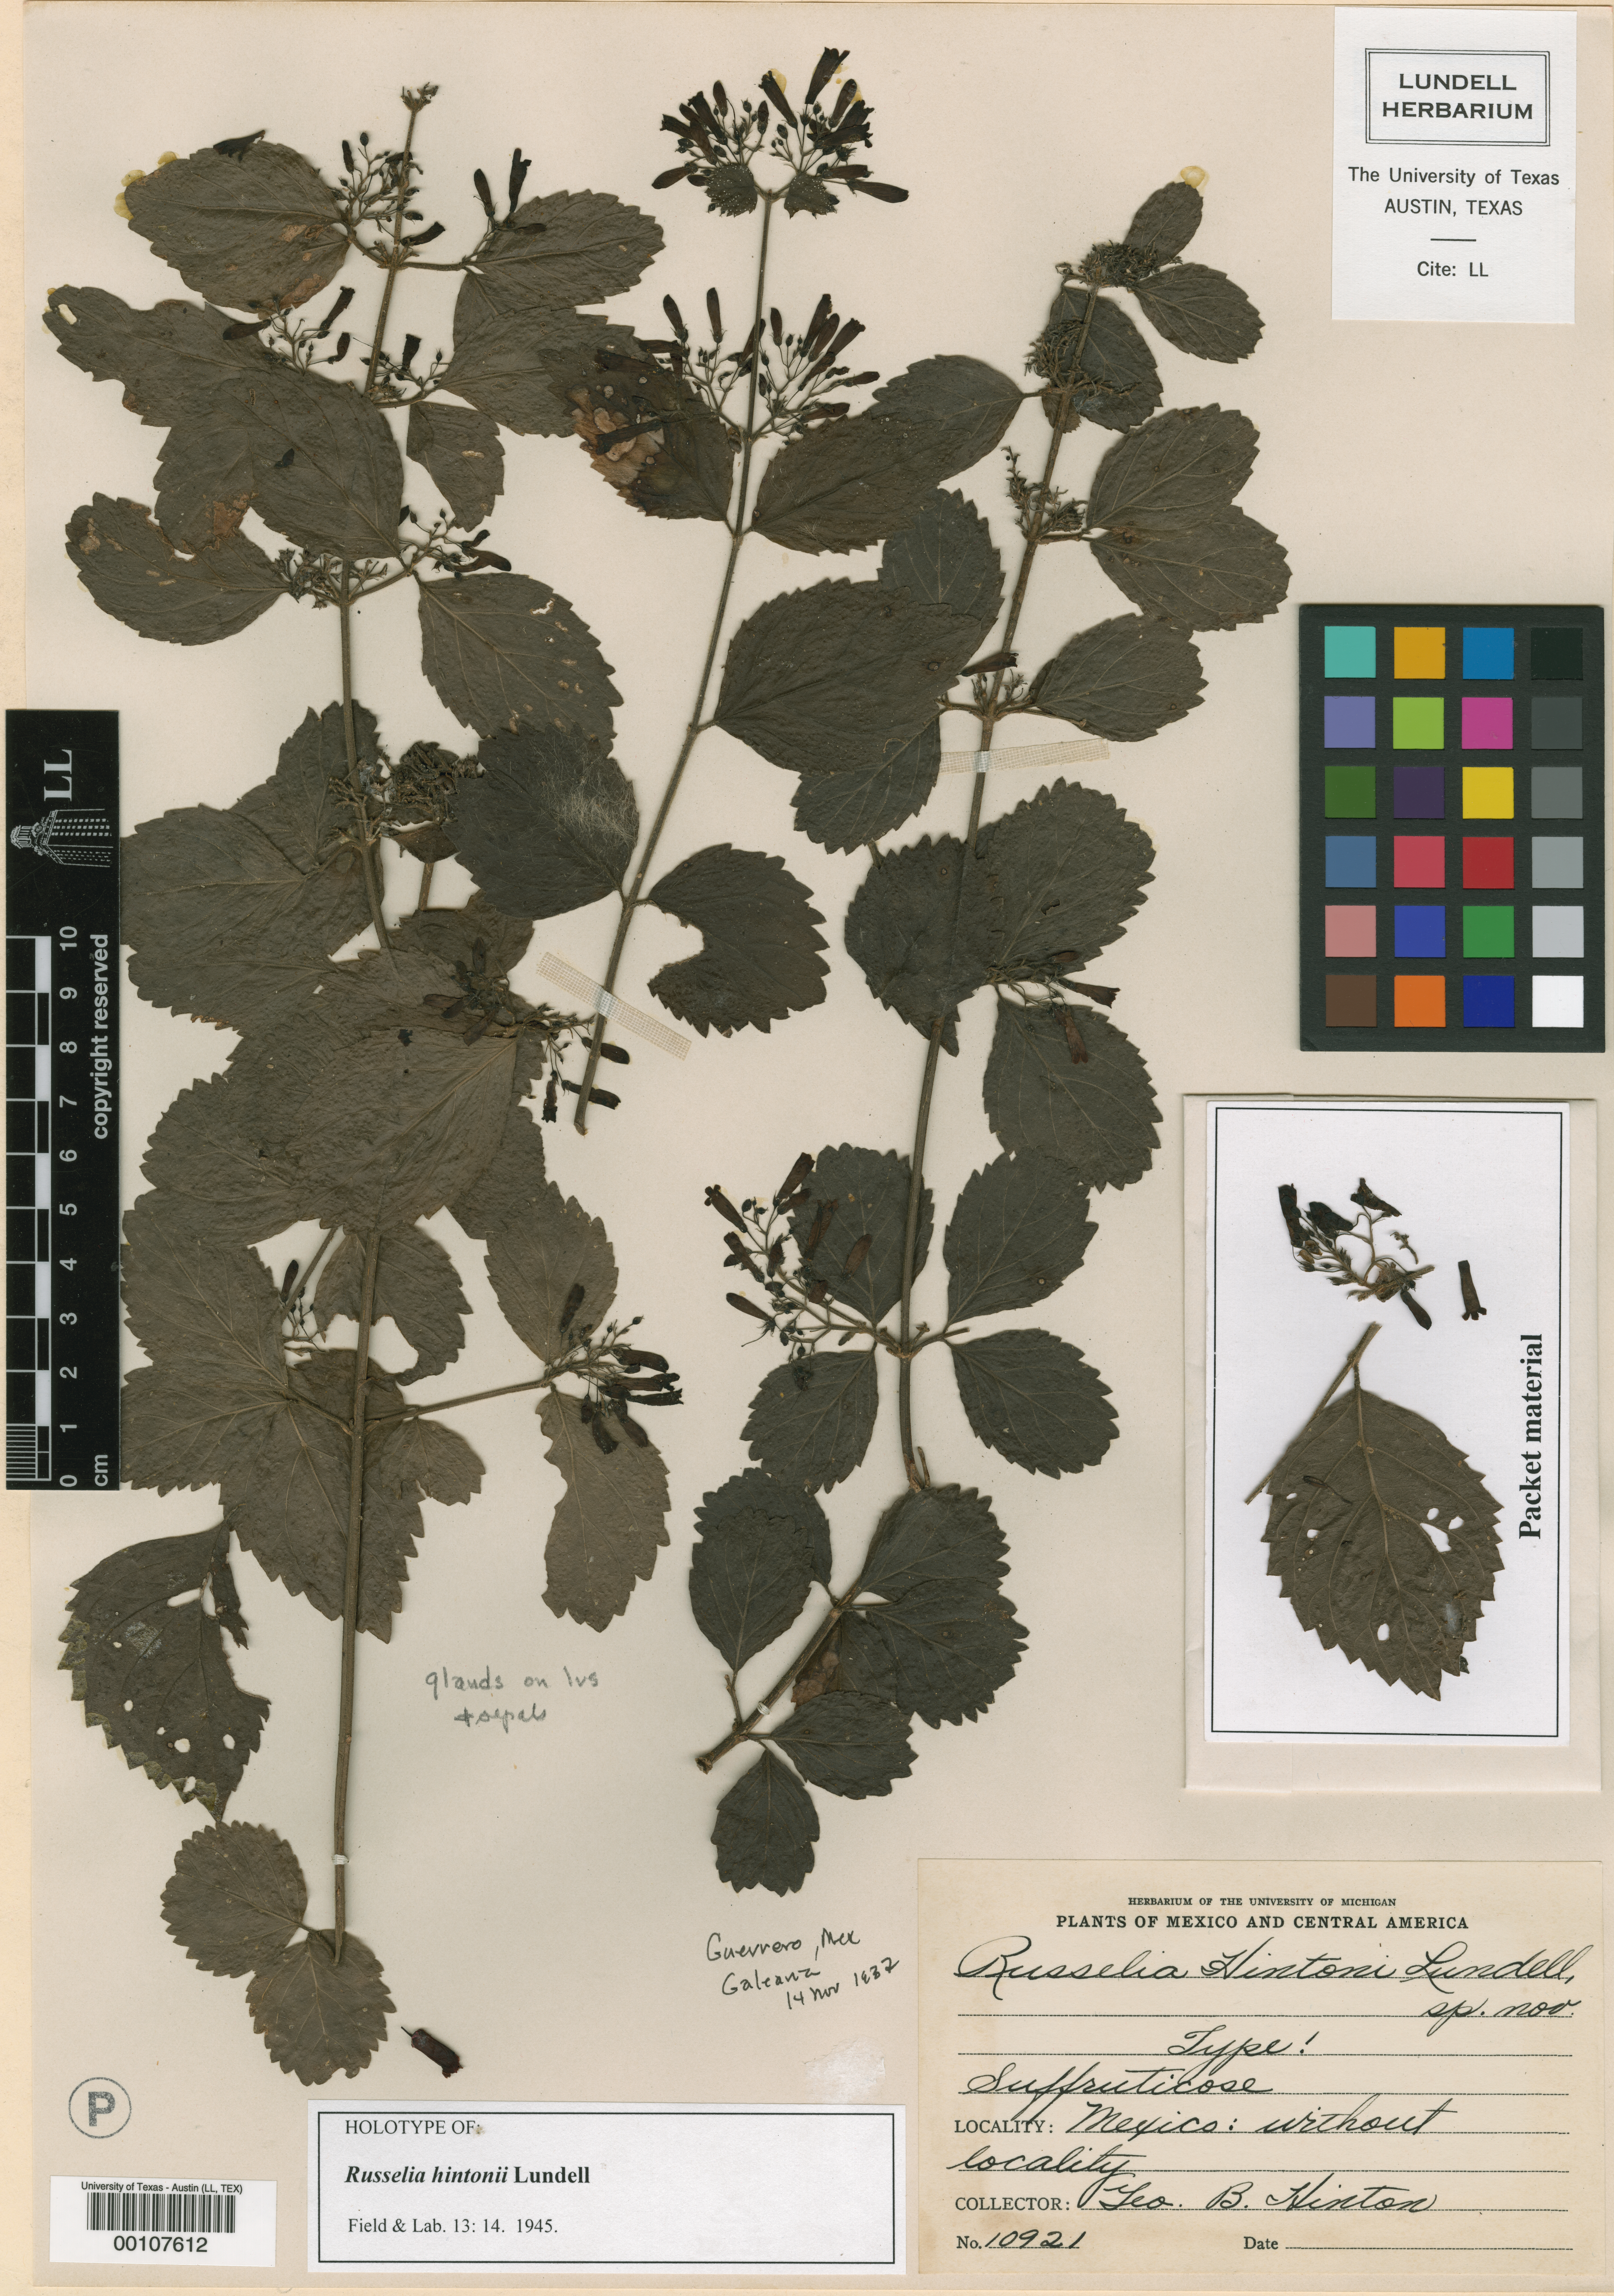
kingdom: Plantae
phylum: Tracheophyta
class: Magnoliopsida
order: Lamiales
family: Plantaginaceae
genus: Russelia
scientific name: Russelia hintonii
